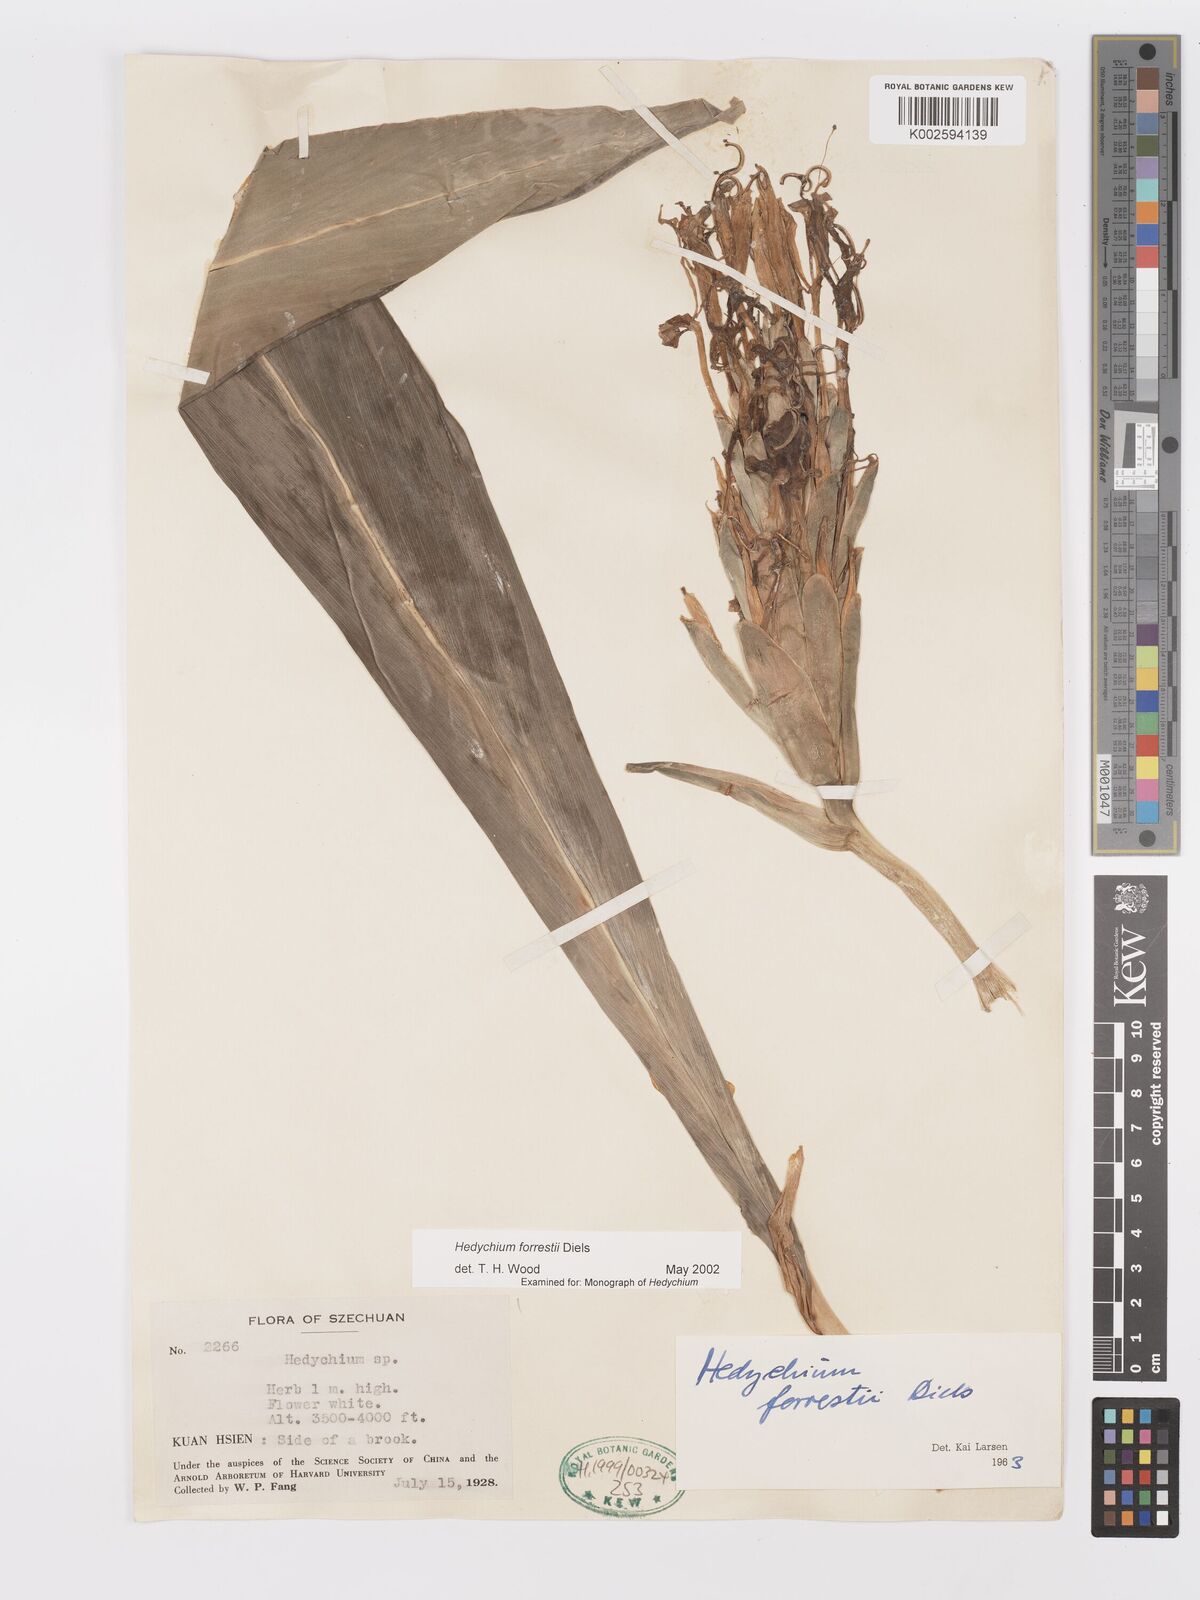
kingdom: Plantae
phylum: Tracheophyta
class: Liliopsida
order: Zingiberales
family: Zingiberaceae
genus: Hedychium
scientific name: Hedychium forrestii
